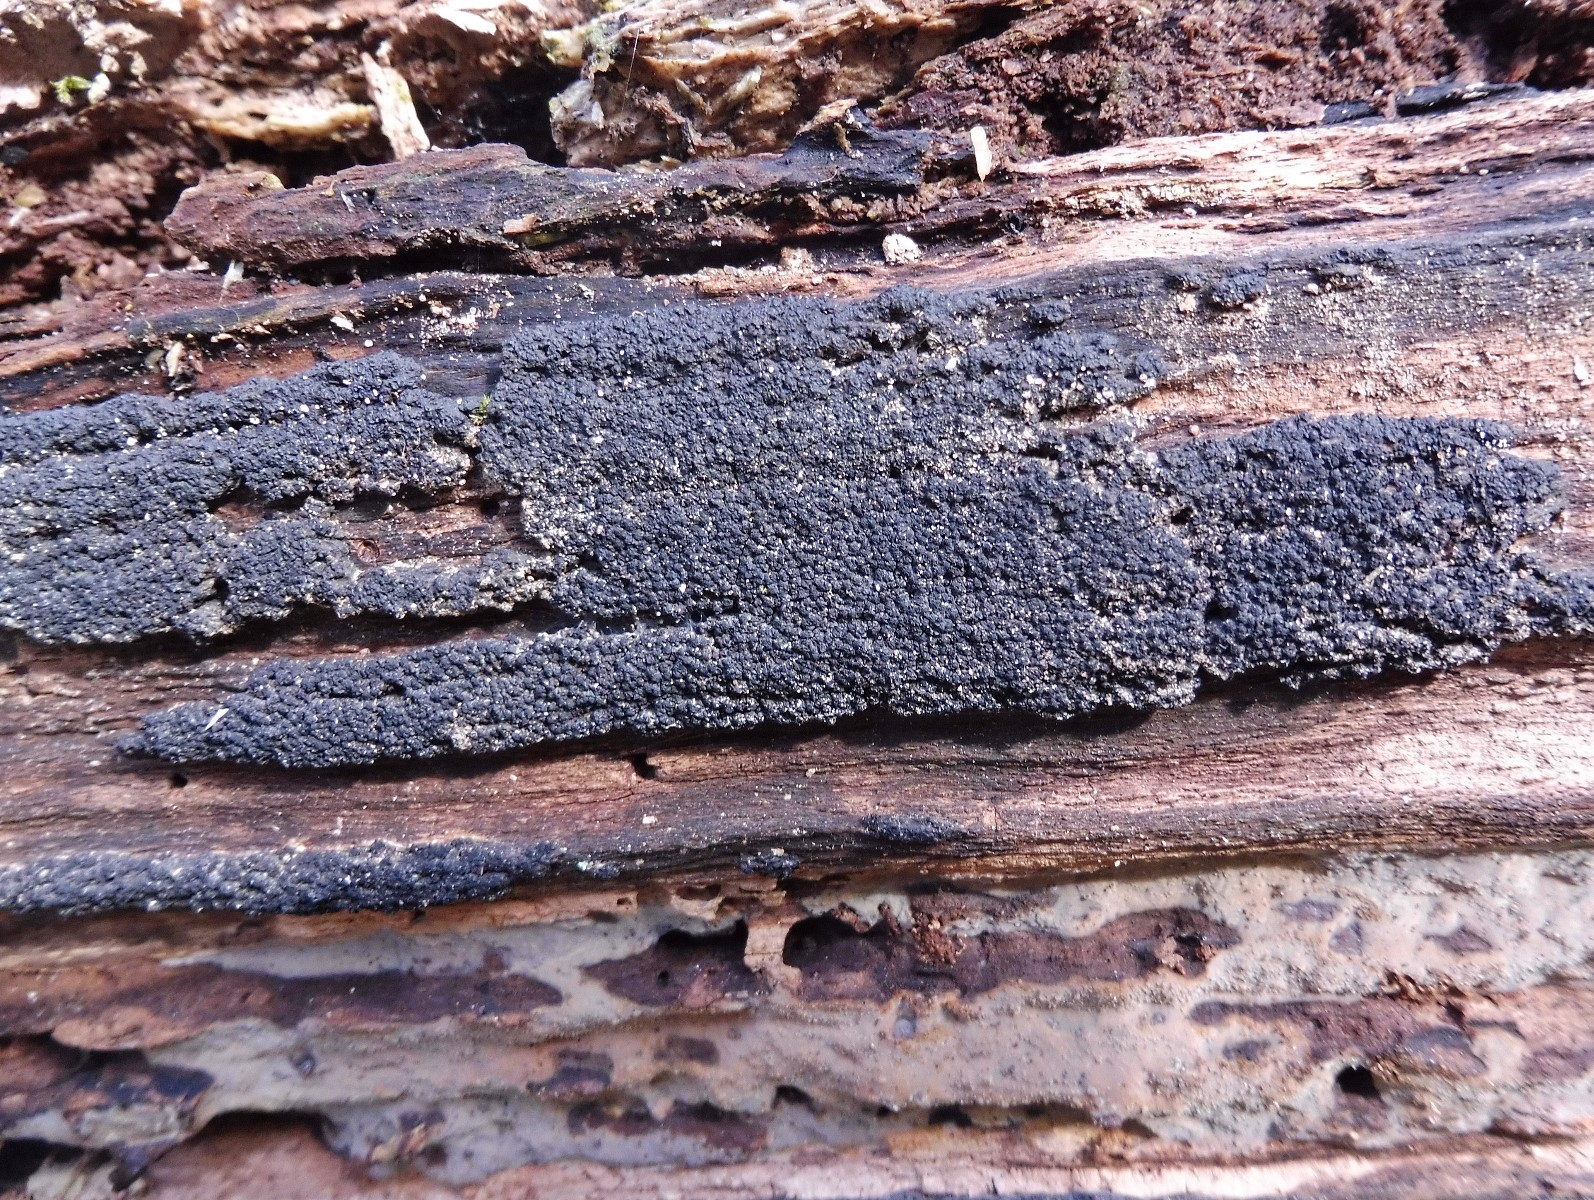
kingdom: Fungi
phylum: Ascomycota
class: Sordariomycetes
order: Xylariales
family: Diatrypaceae
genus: Eutypa
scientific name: Eutypa spinosa
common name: grov kulskorpe
